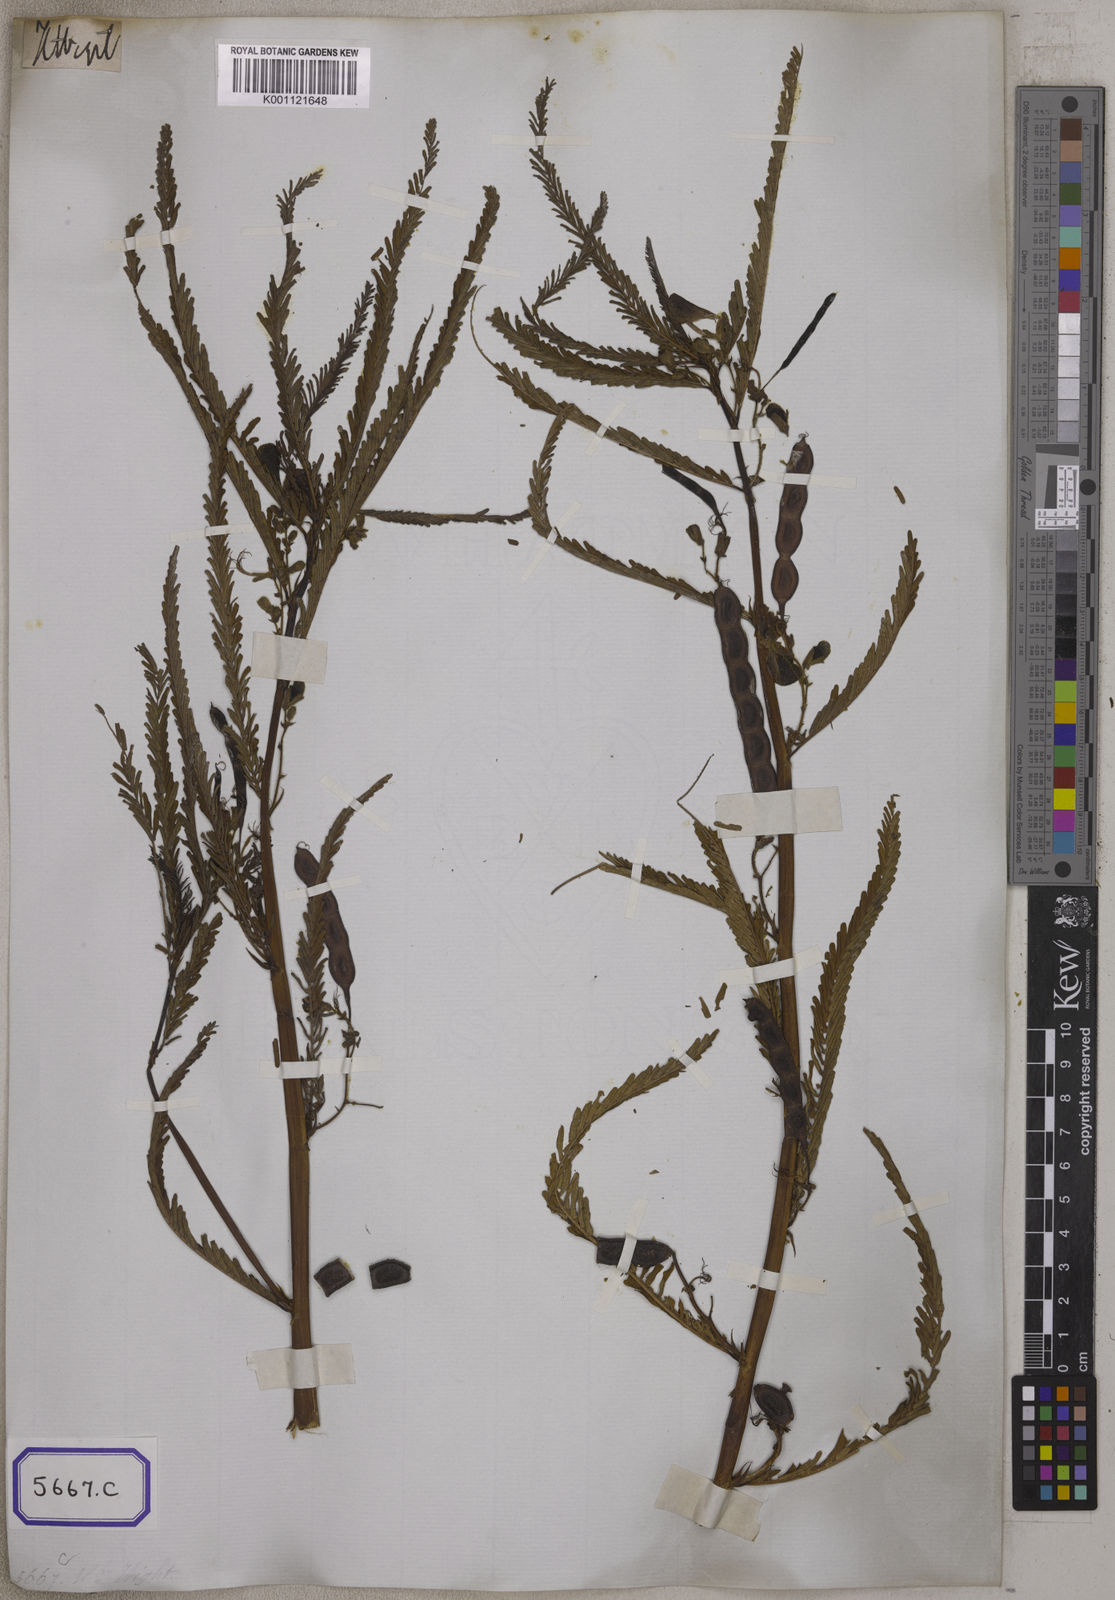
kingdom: Plantae
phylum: Tracheophyta
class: Magnoliopsida
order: Fabales
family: Fabaceae
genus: Aeschynomene
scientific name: Aeschynomene aspera
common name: Pith plant
